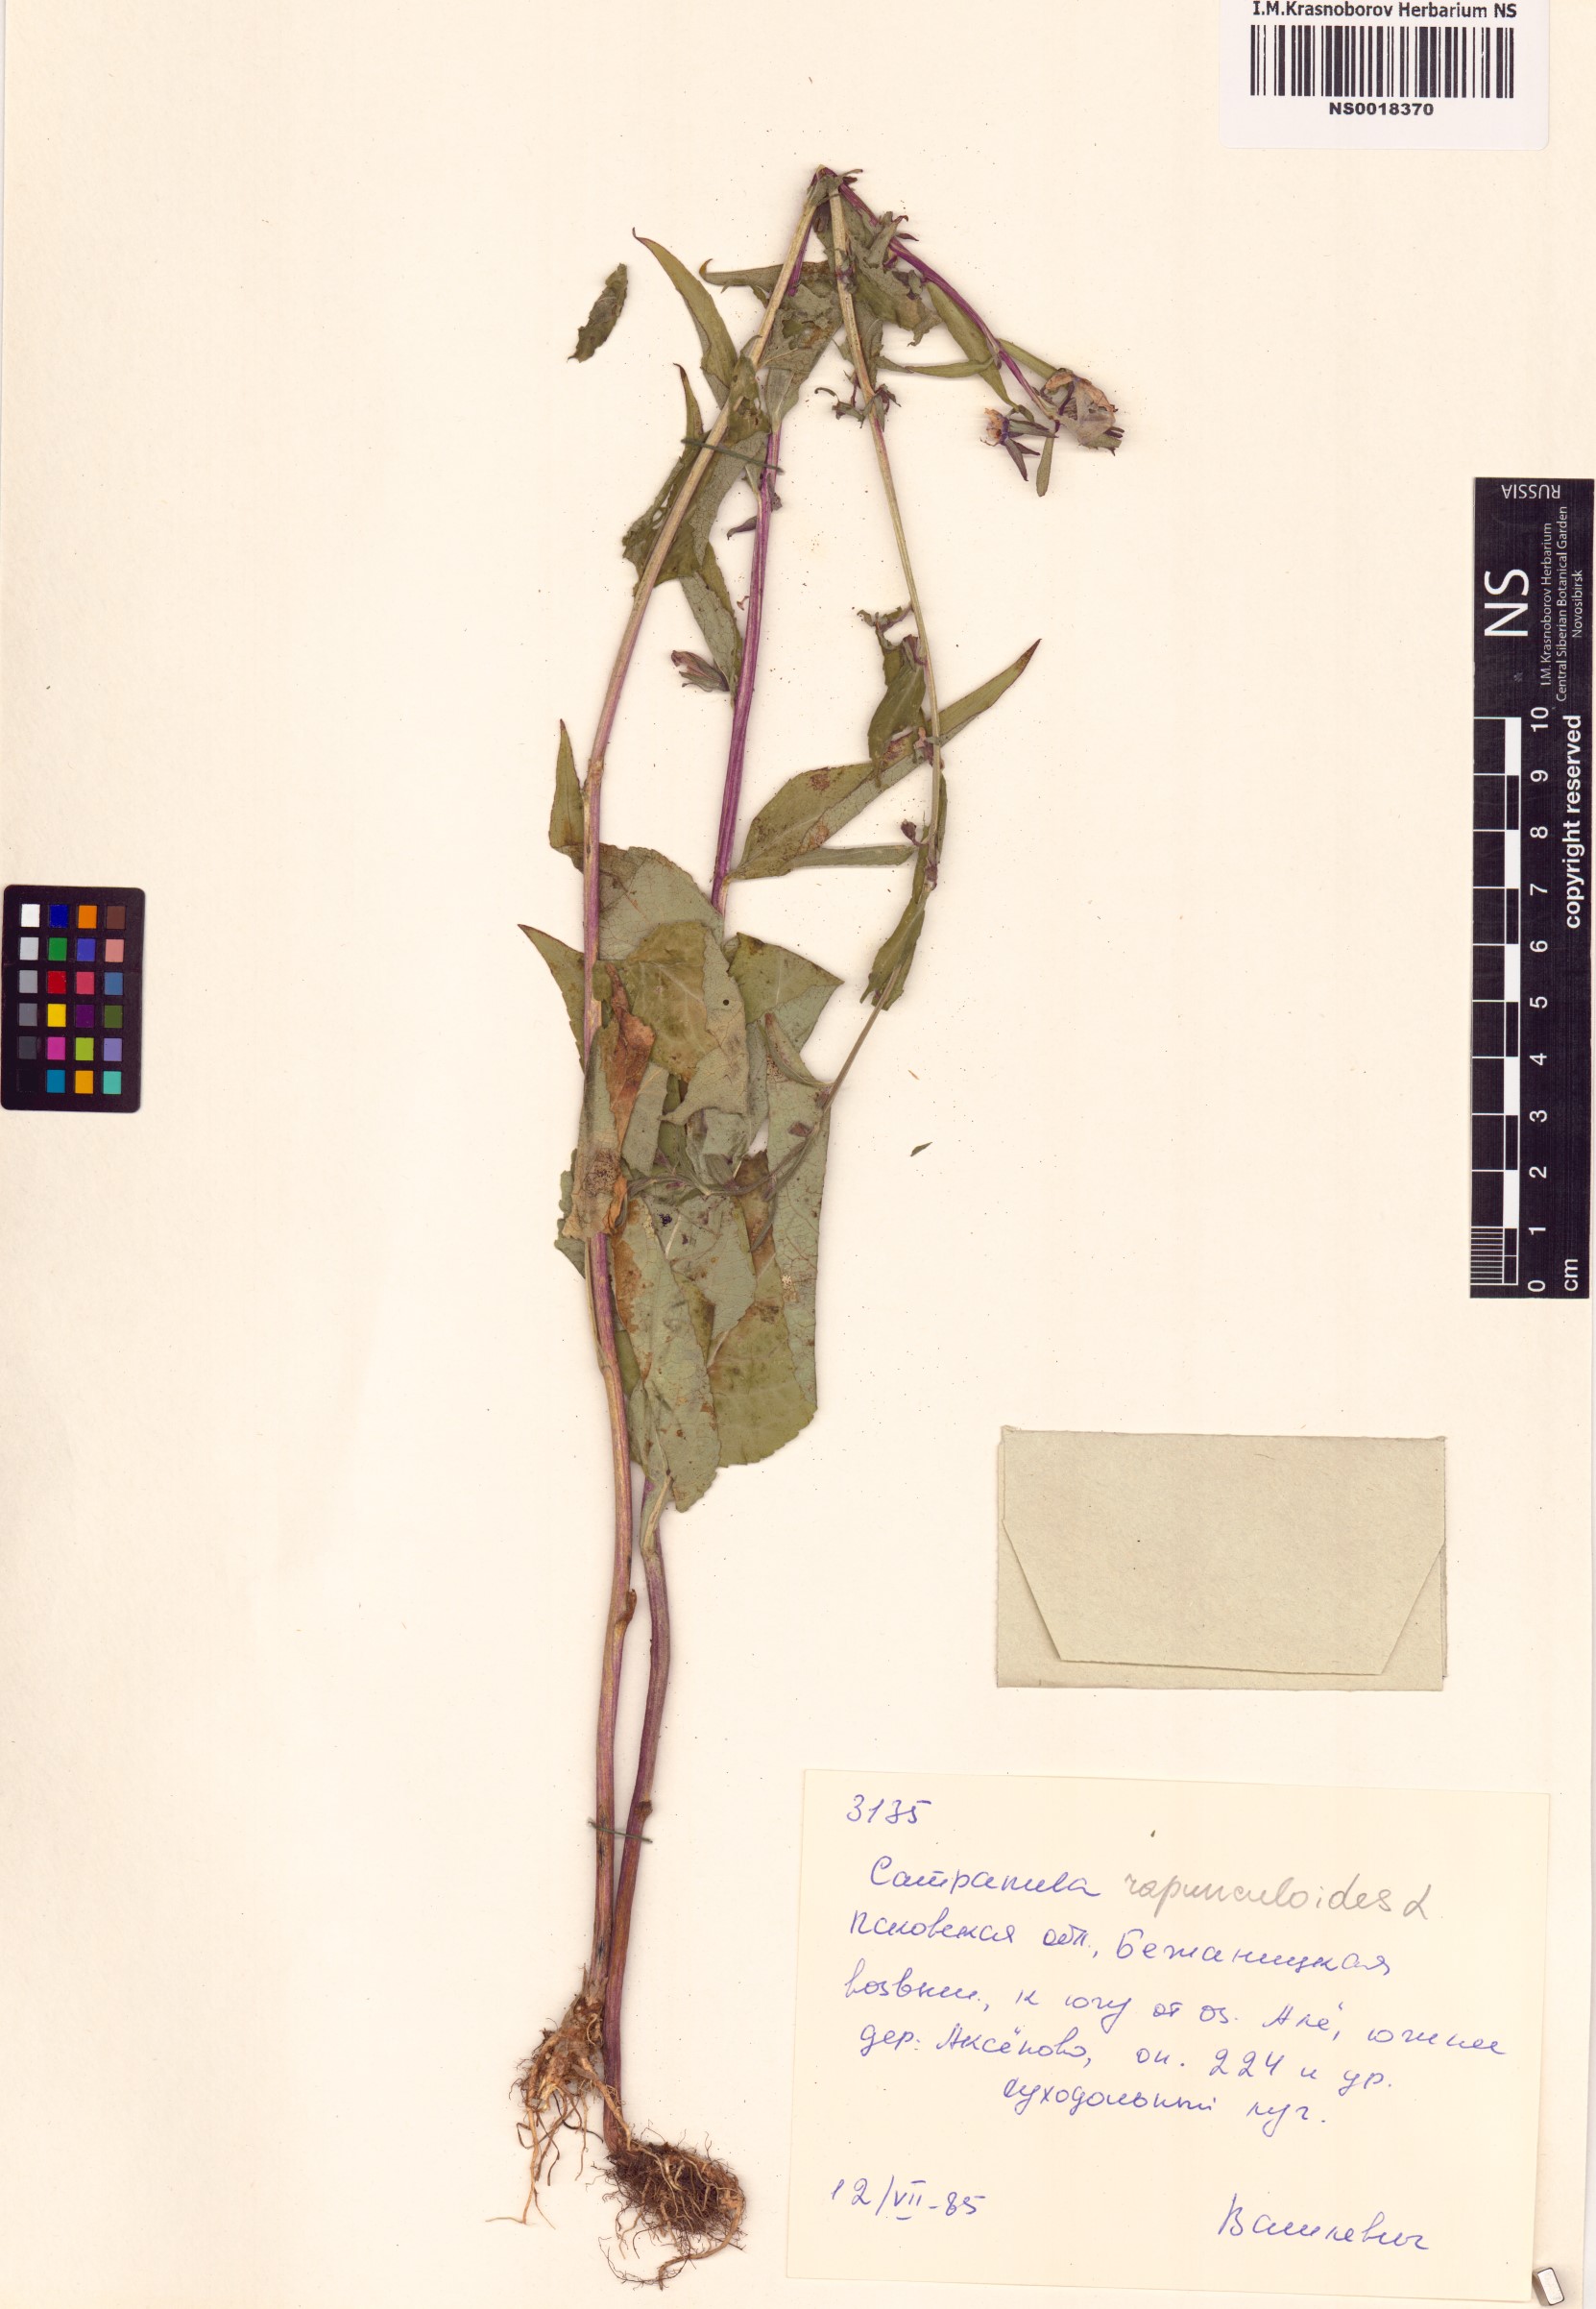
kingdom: Plantae
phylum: Tracheophyta
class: Magnoliopsida
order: Asterales
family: Campanulaceae
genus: Campanula
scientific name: Campanula rapunculoides
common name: Creeping bellflower
